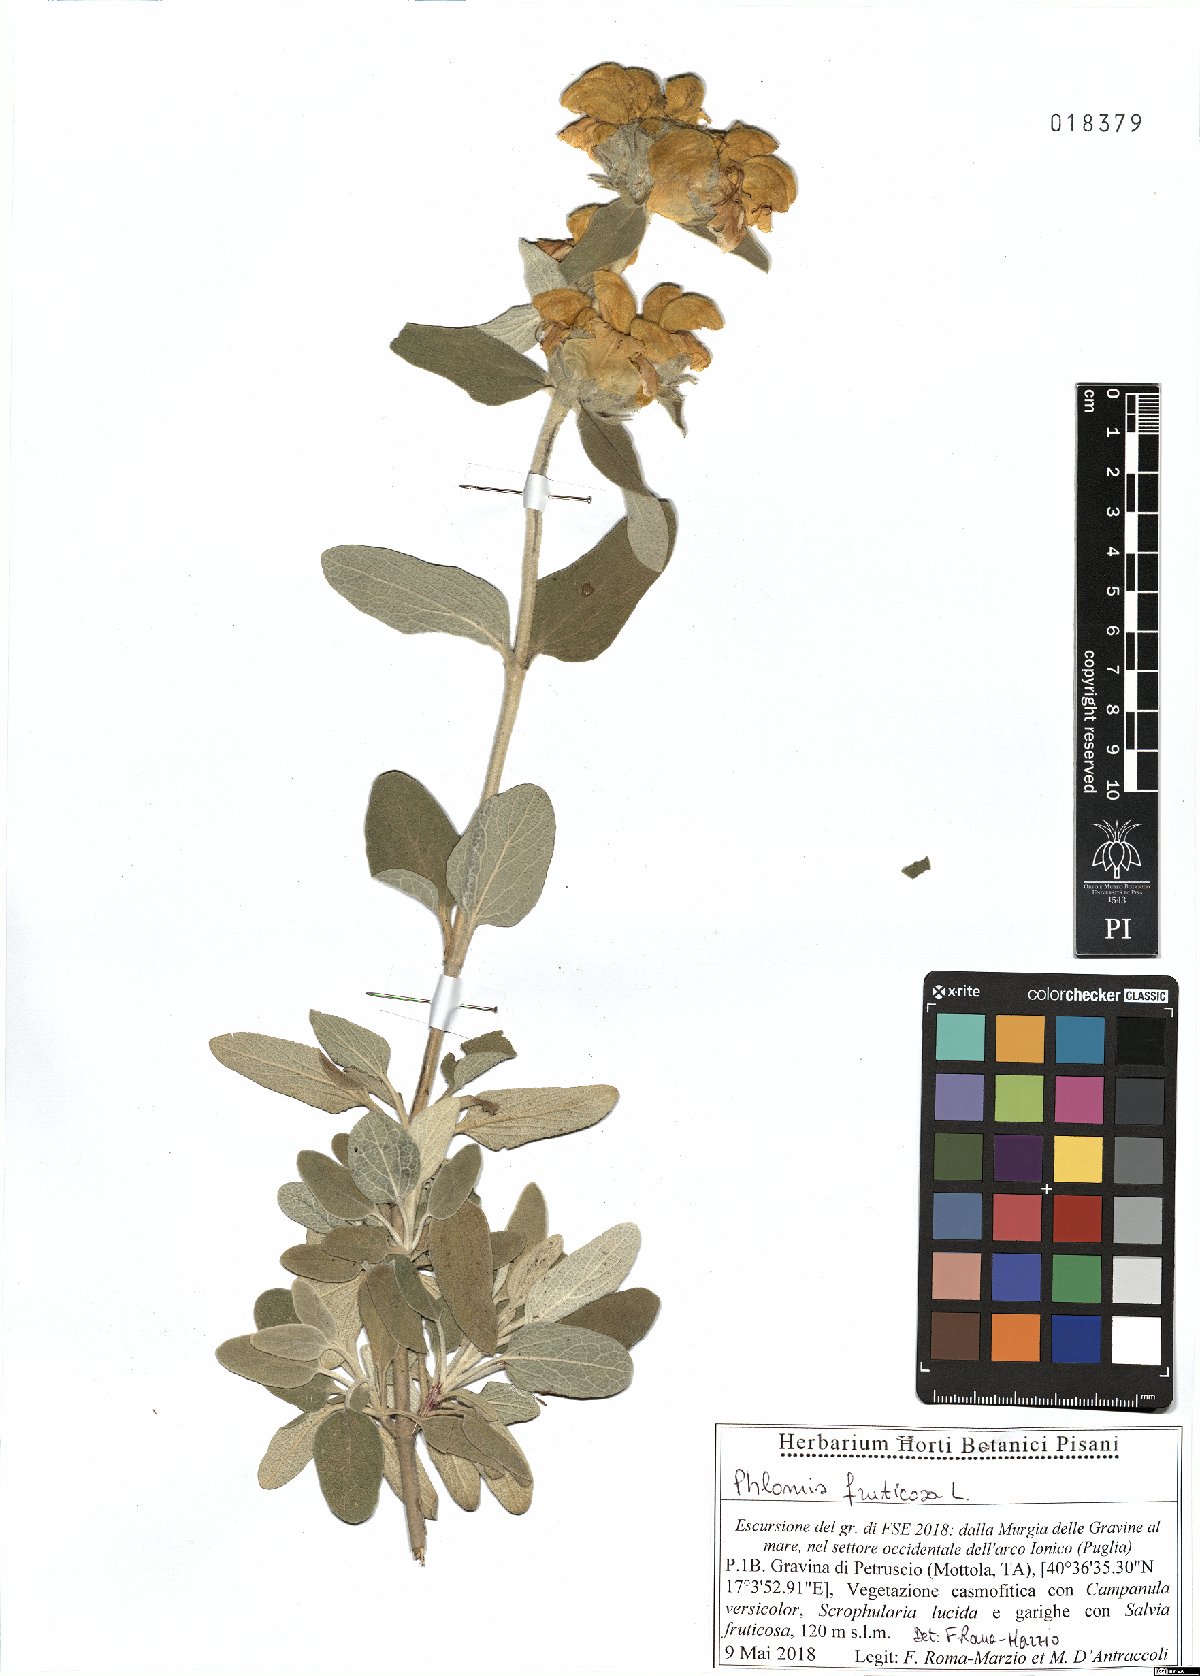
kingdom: Plantae
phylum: Tracheophyta
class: Magnoliopsida
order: Lamiales
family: Lamiaceae
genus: Phlomis
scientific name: Phlomis fruticosa
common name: Jerusalem sage
